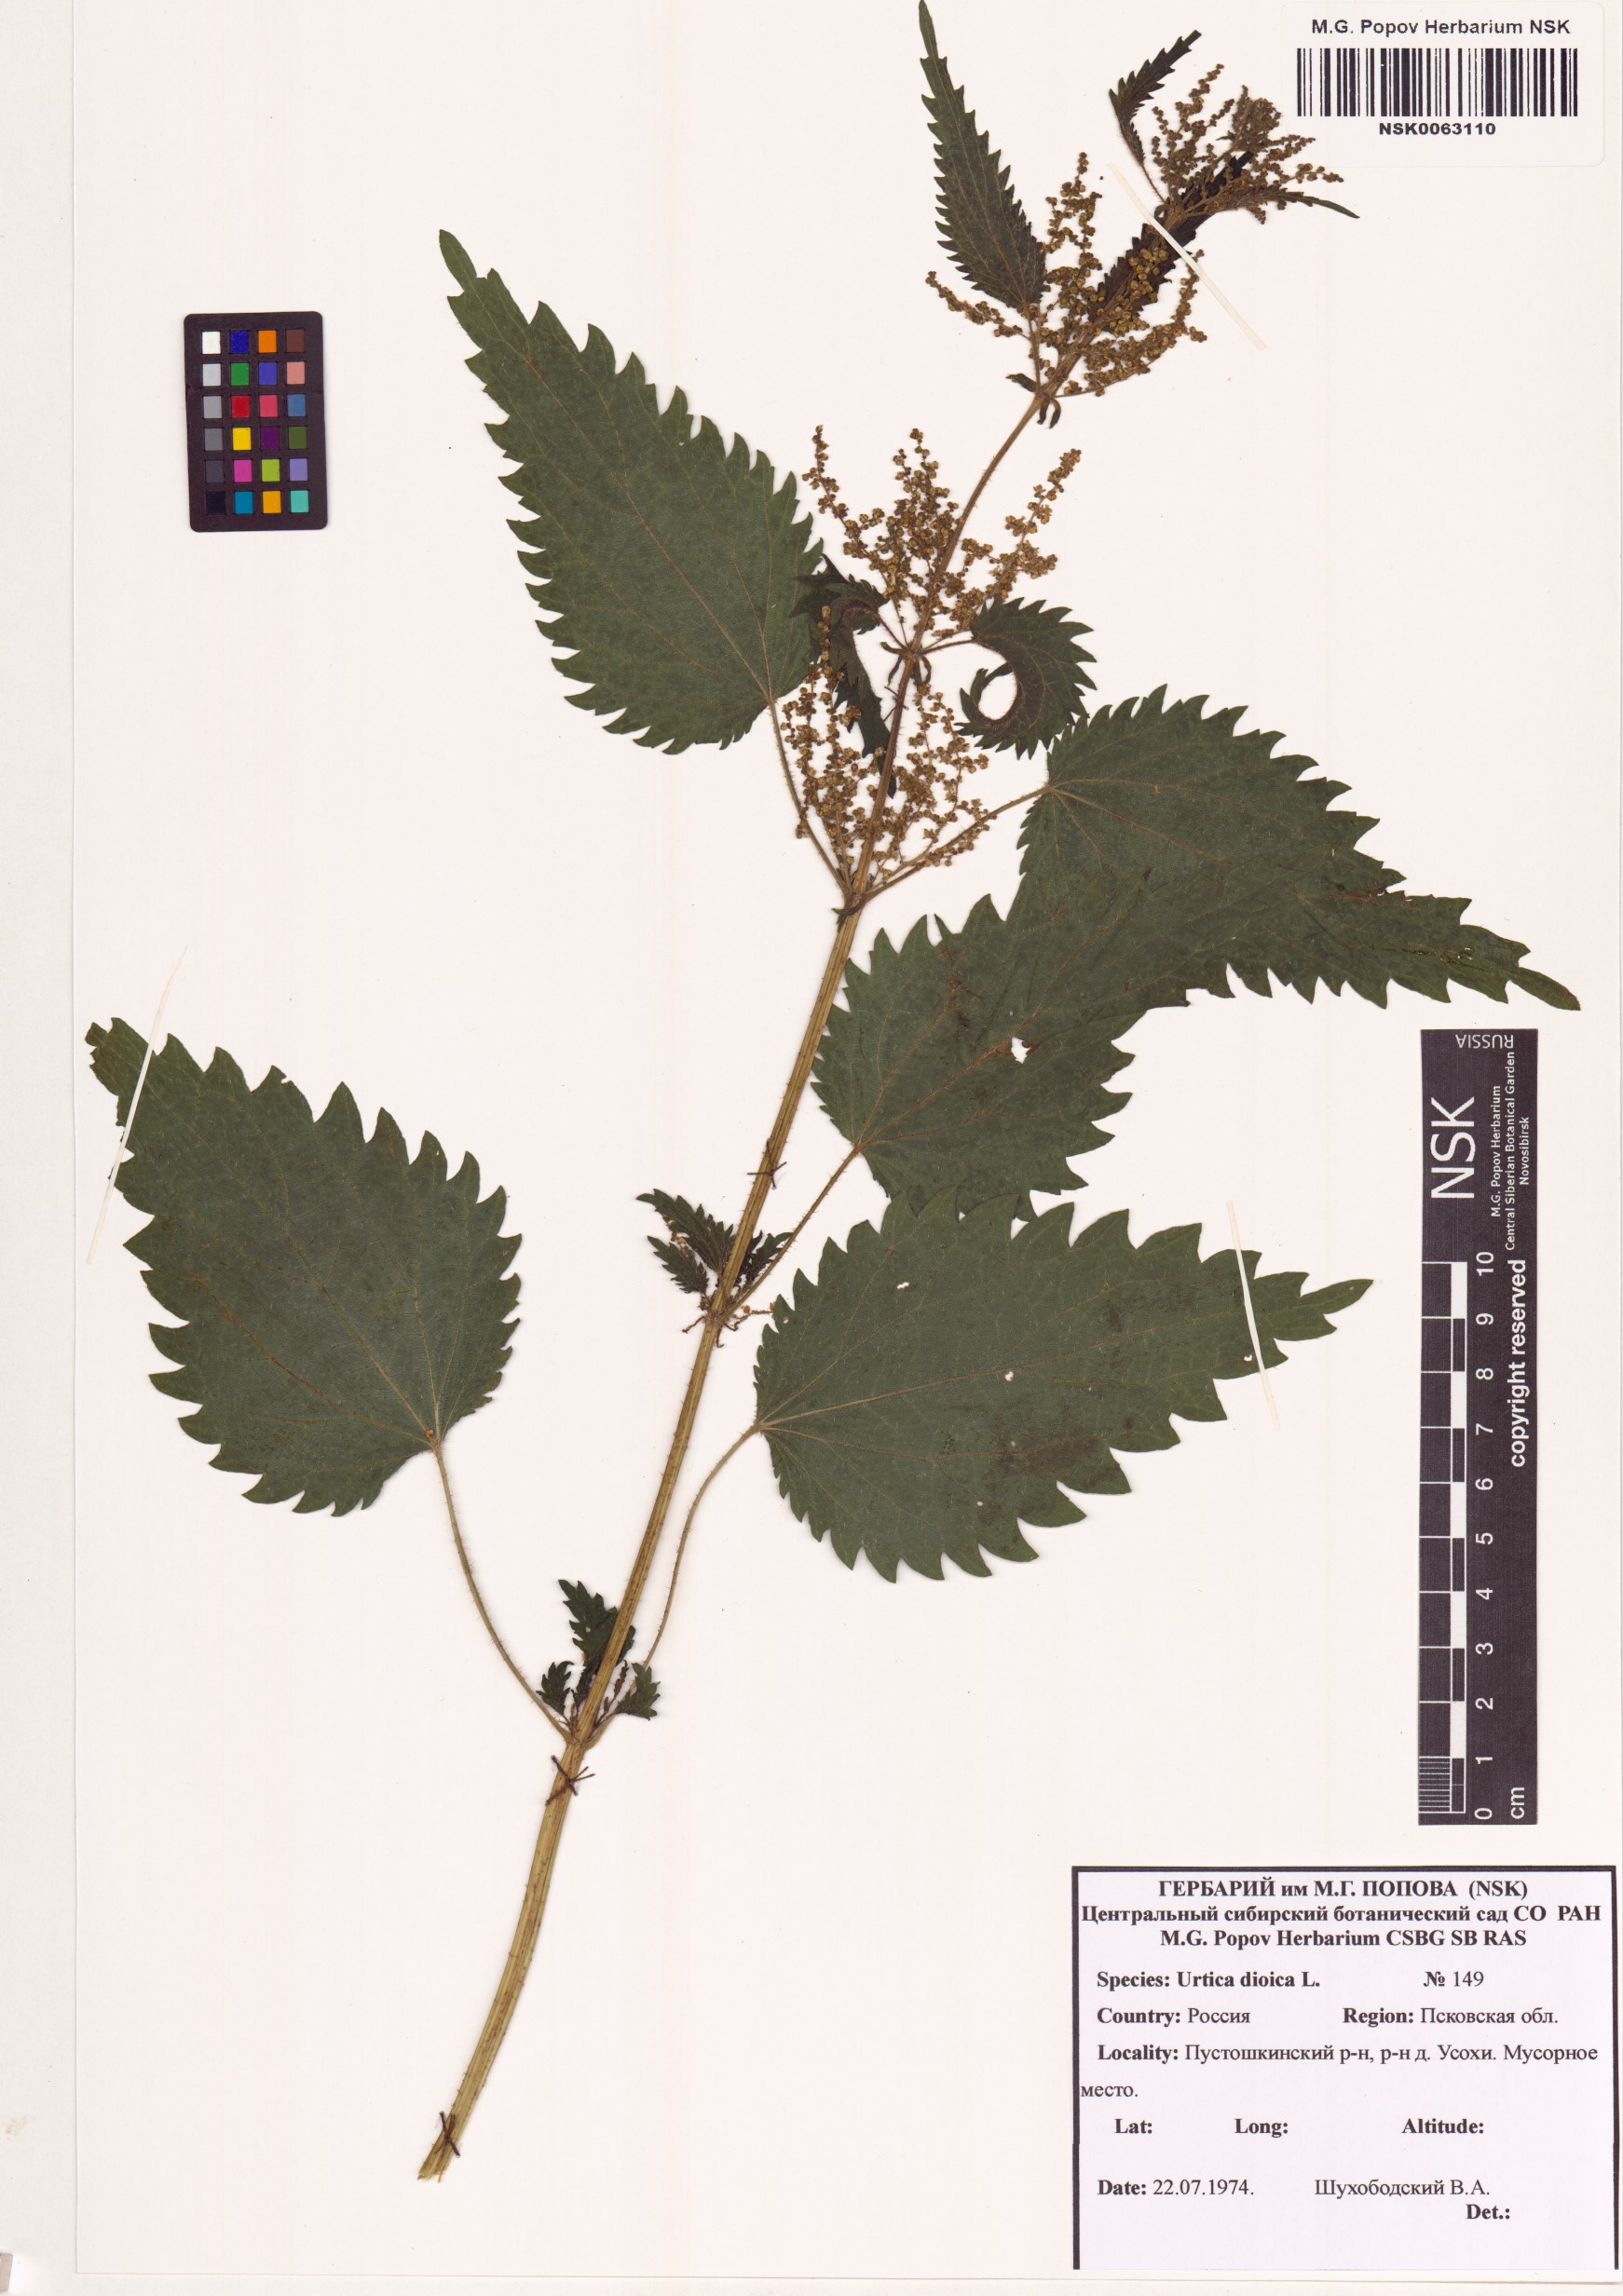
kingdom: Plantae
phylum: Tracheophyta
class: Magnoliopsida
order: Rosales
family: Urticaceae
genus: Urtica
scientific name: Urtica dioica
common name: Common nettle
